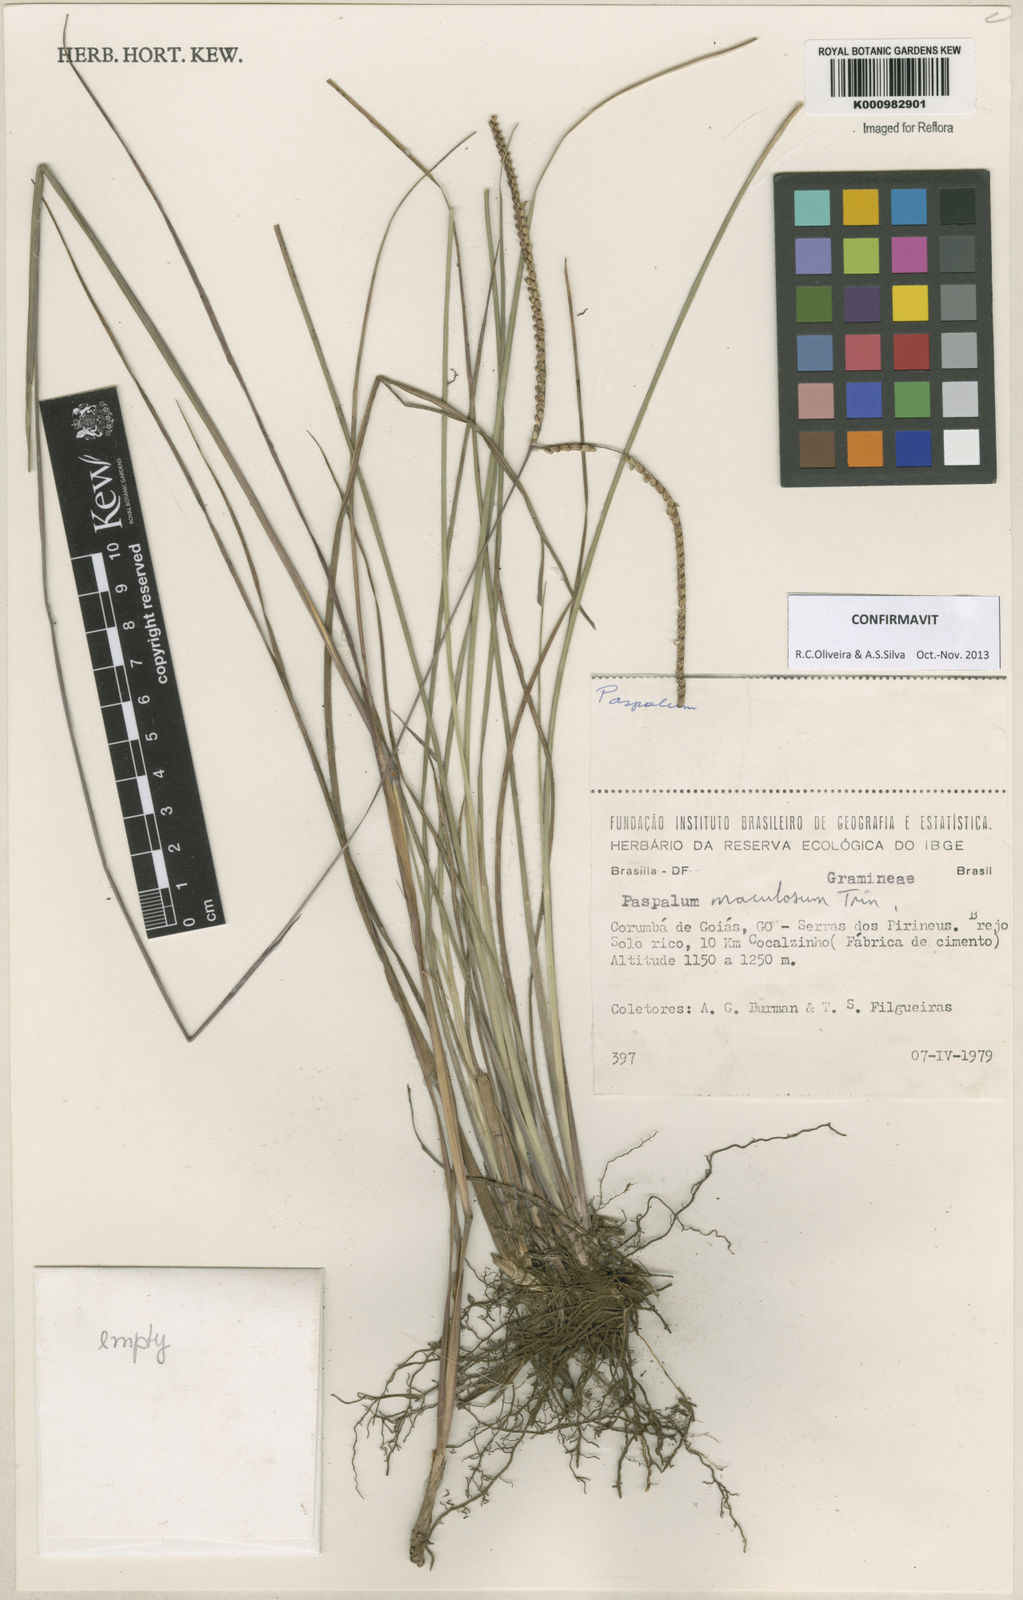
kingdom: Plantae
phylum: Tracheophyta
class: Liliopsida
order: Poales
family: Poaceae
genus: Paspalum
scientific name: Paspalum maculosum
